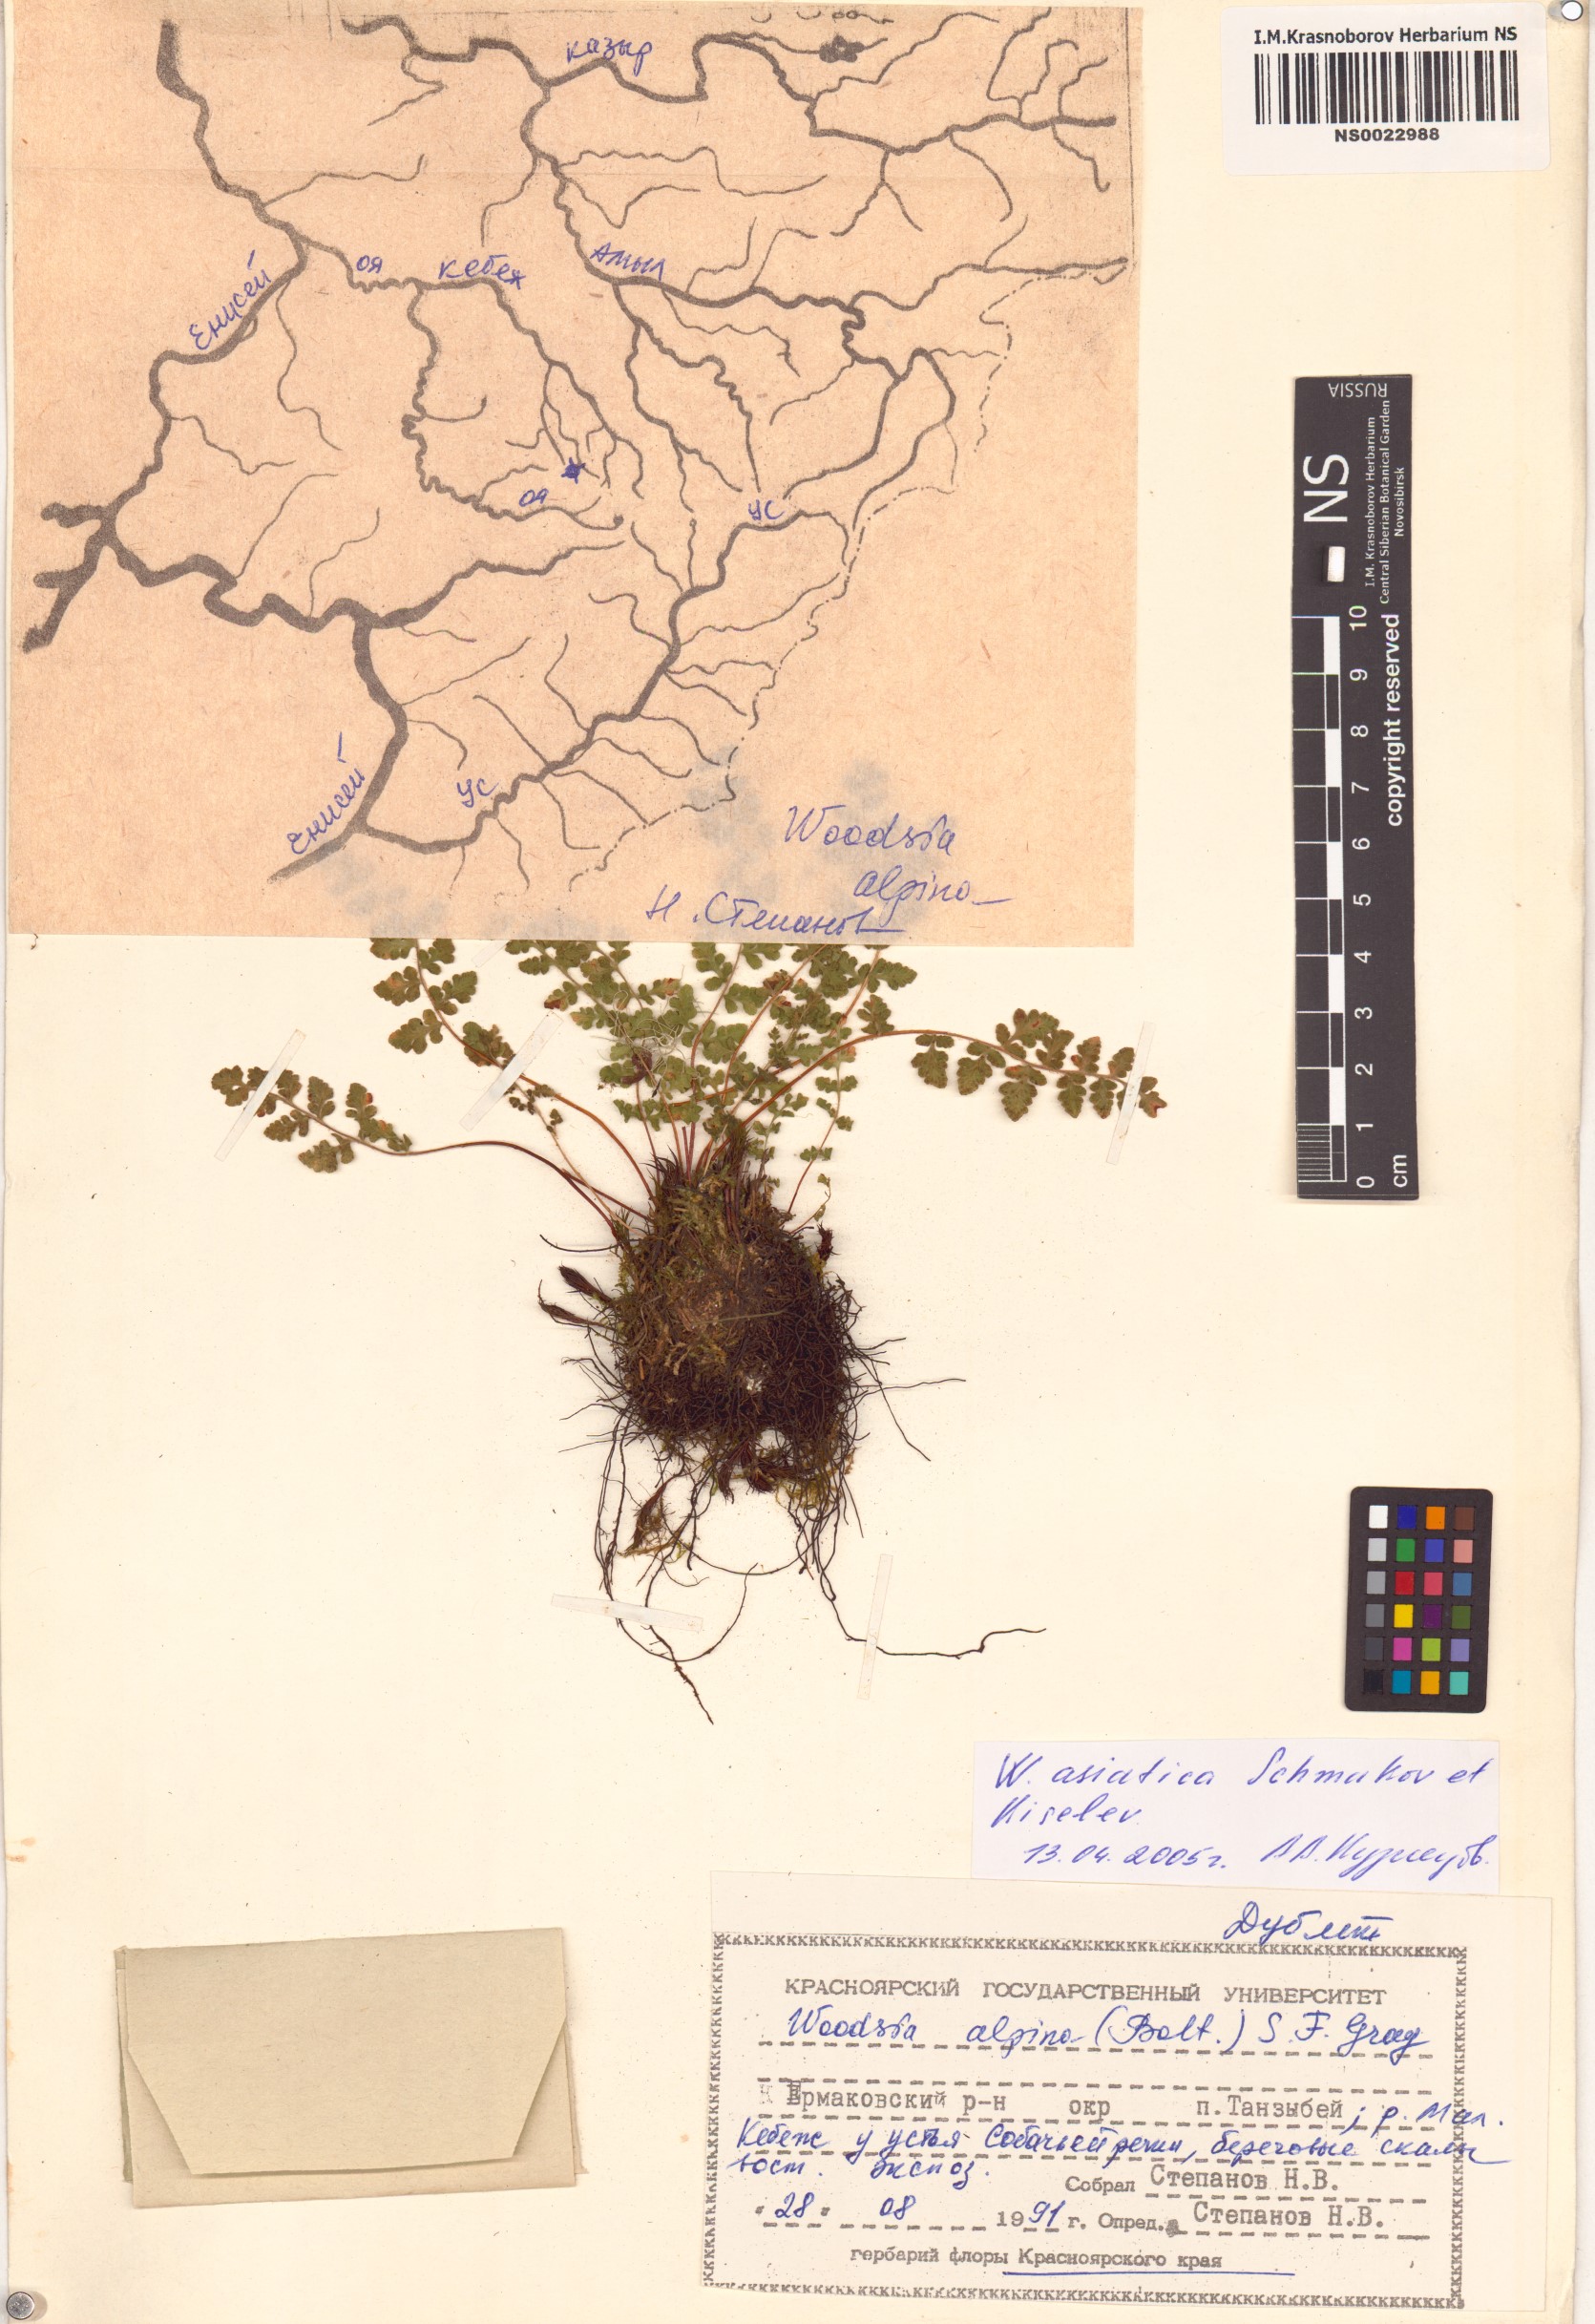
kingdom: Plantae
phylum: Tracheophyta
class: Polypodiopsida
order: Polypodiales
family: Woodsiaceae
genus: Woodsia
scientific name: Woodsia asiatica
